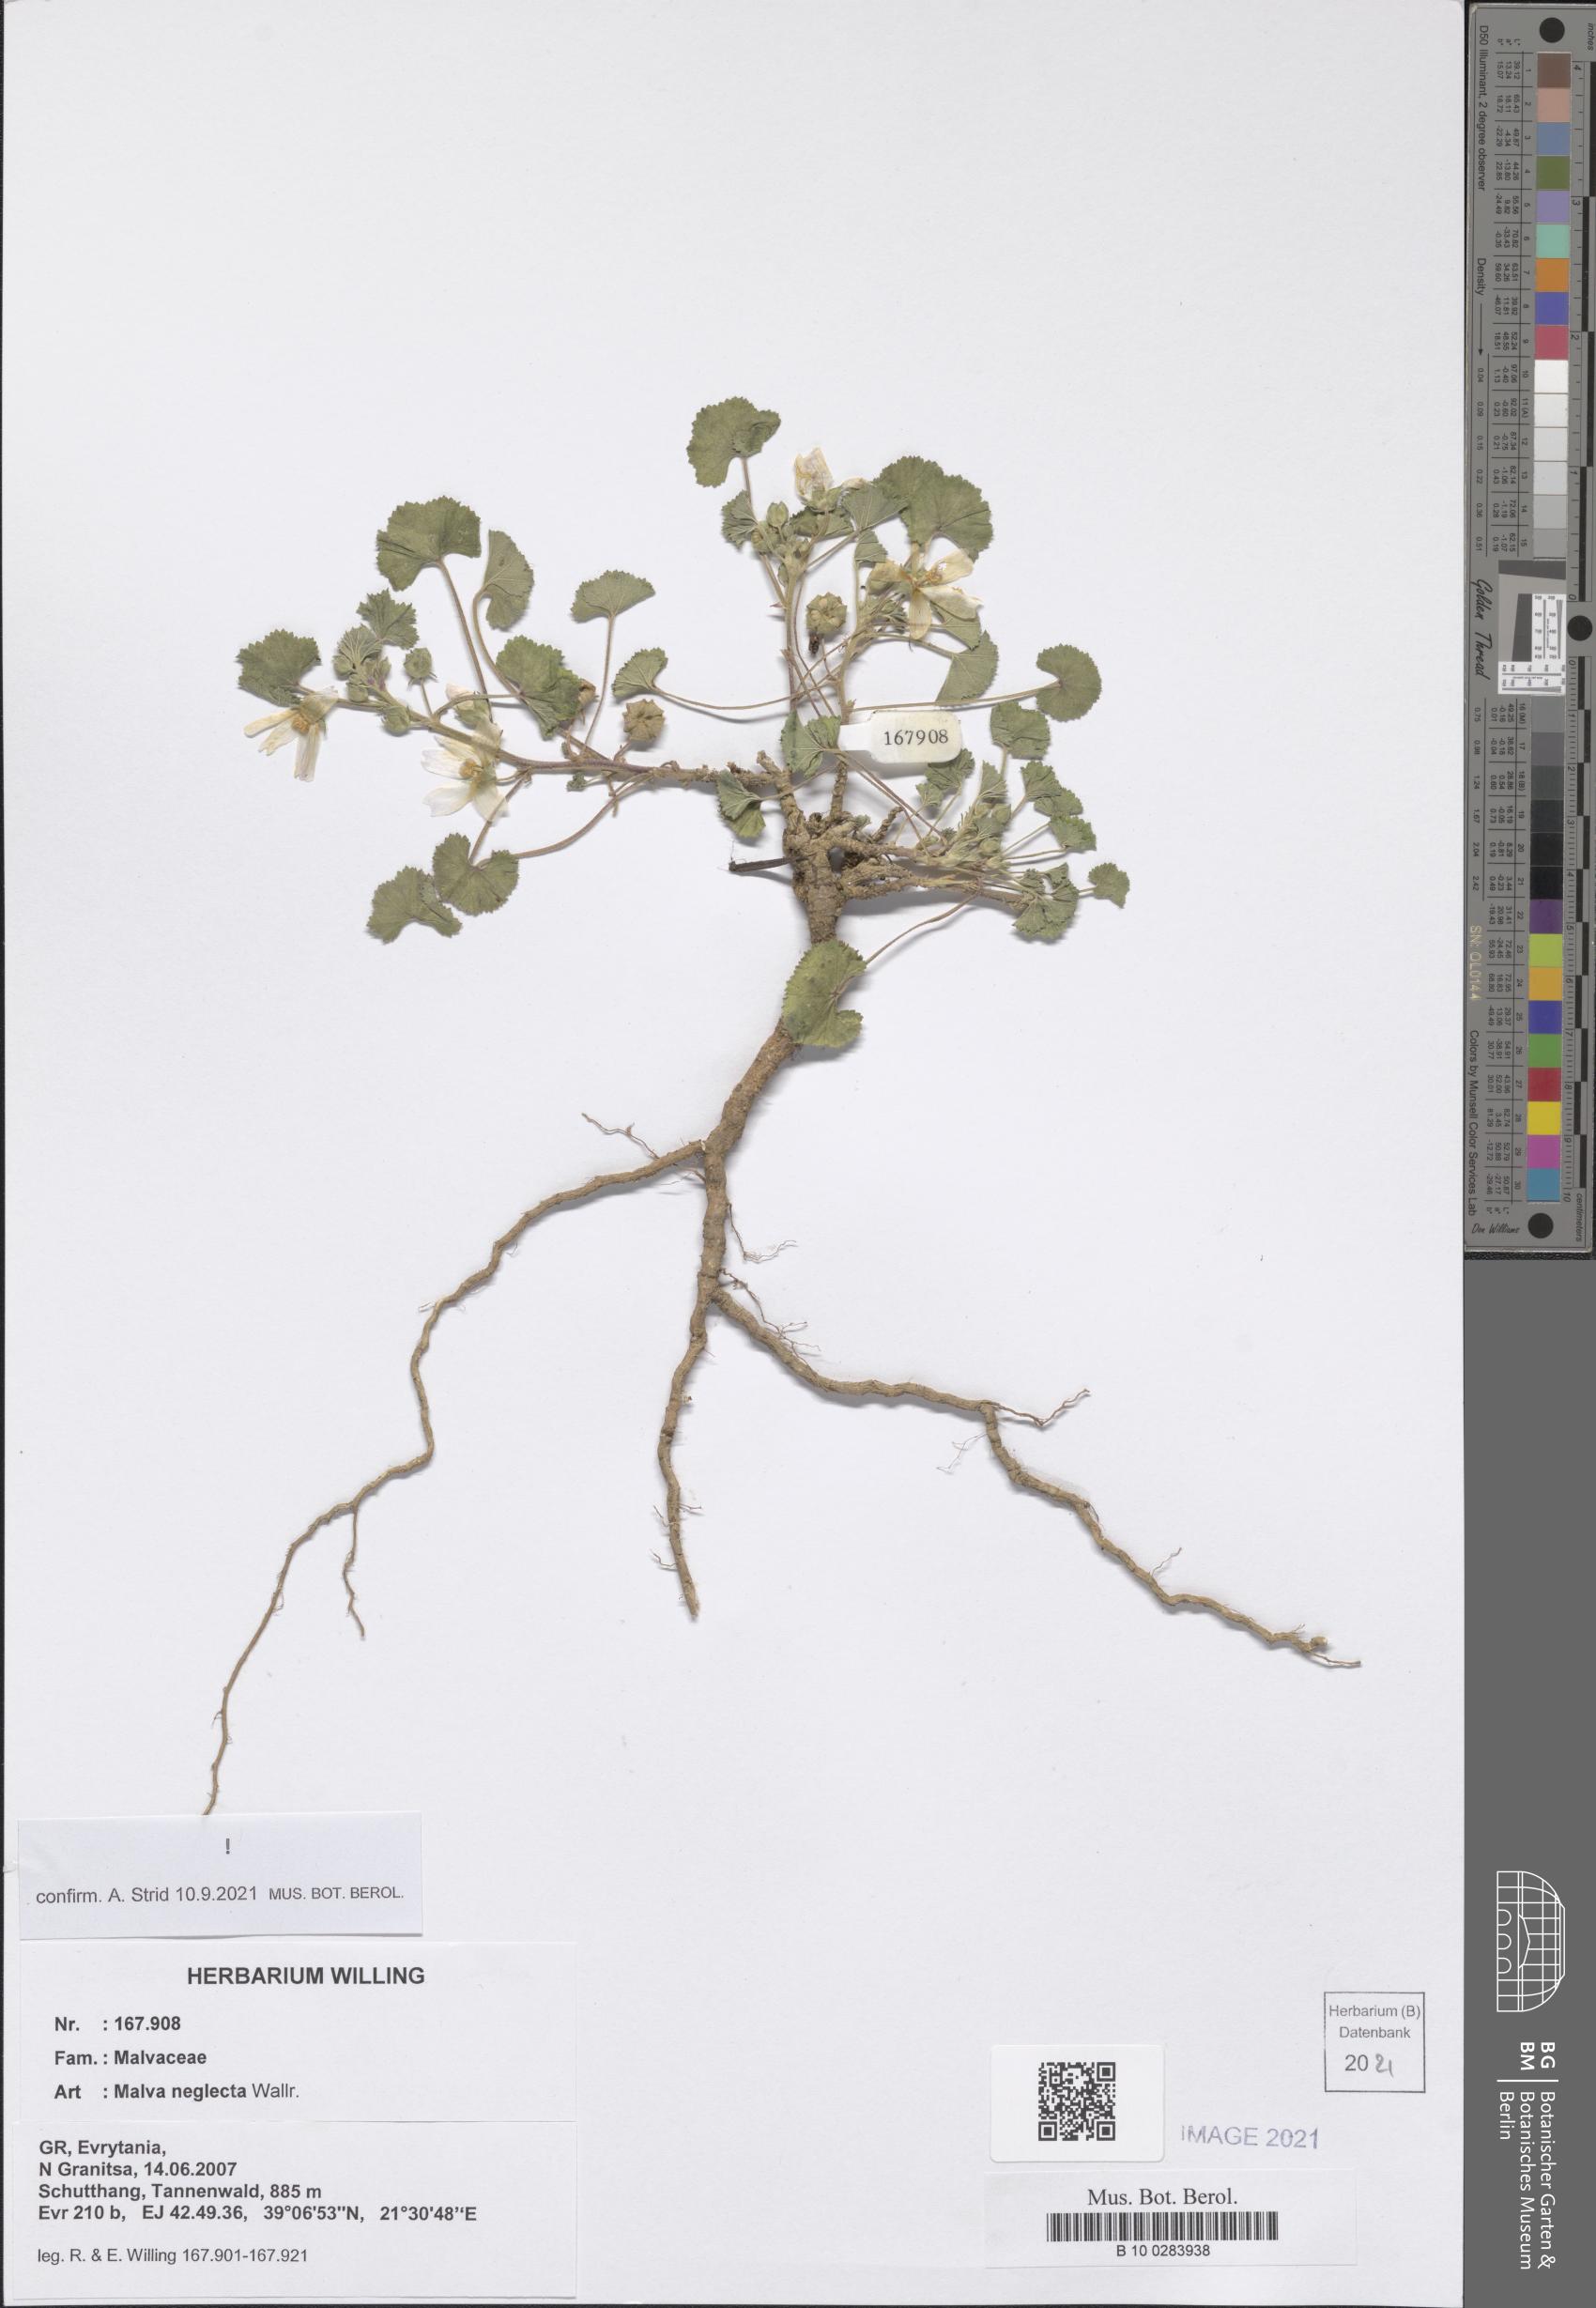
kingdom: Plantae
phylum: Tracheophyta
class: Magnoliopsida
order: Malvales
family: Malvaceae
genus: Malva
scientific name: Malva neglecta
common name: Common mallow
